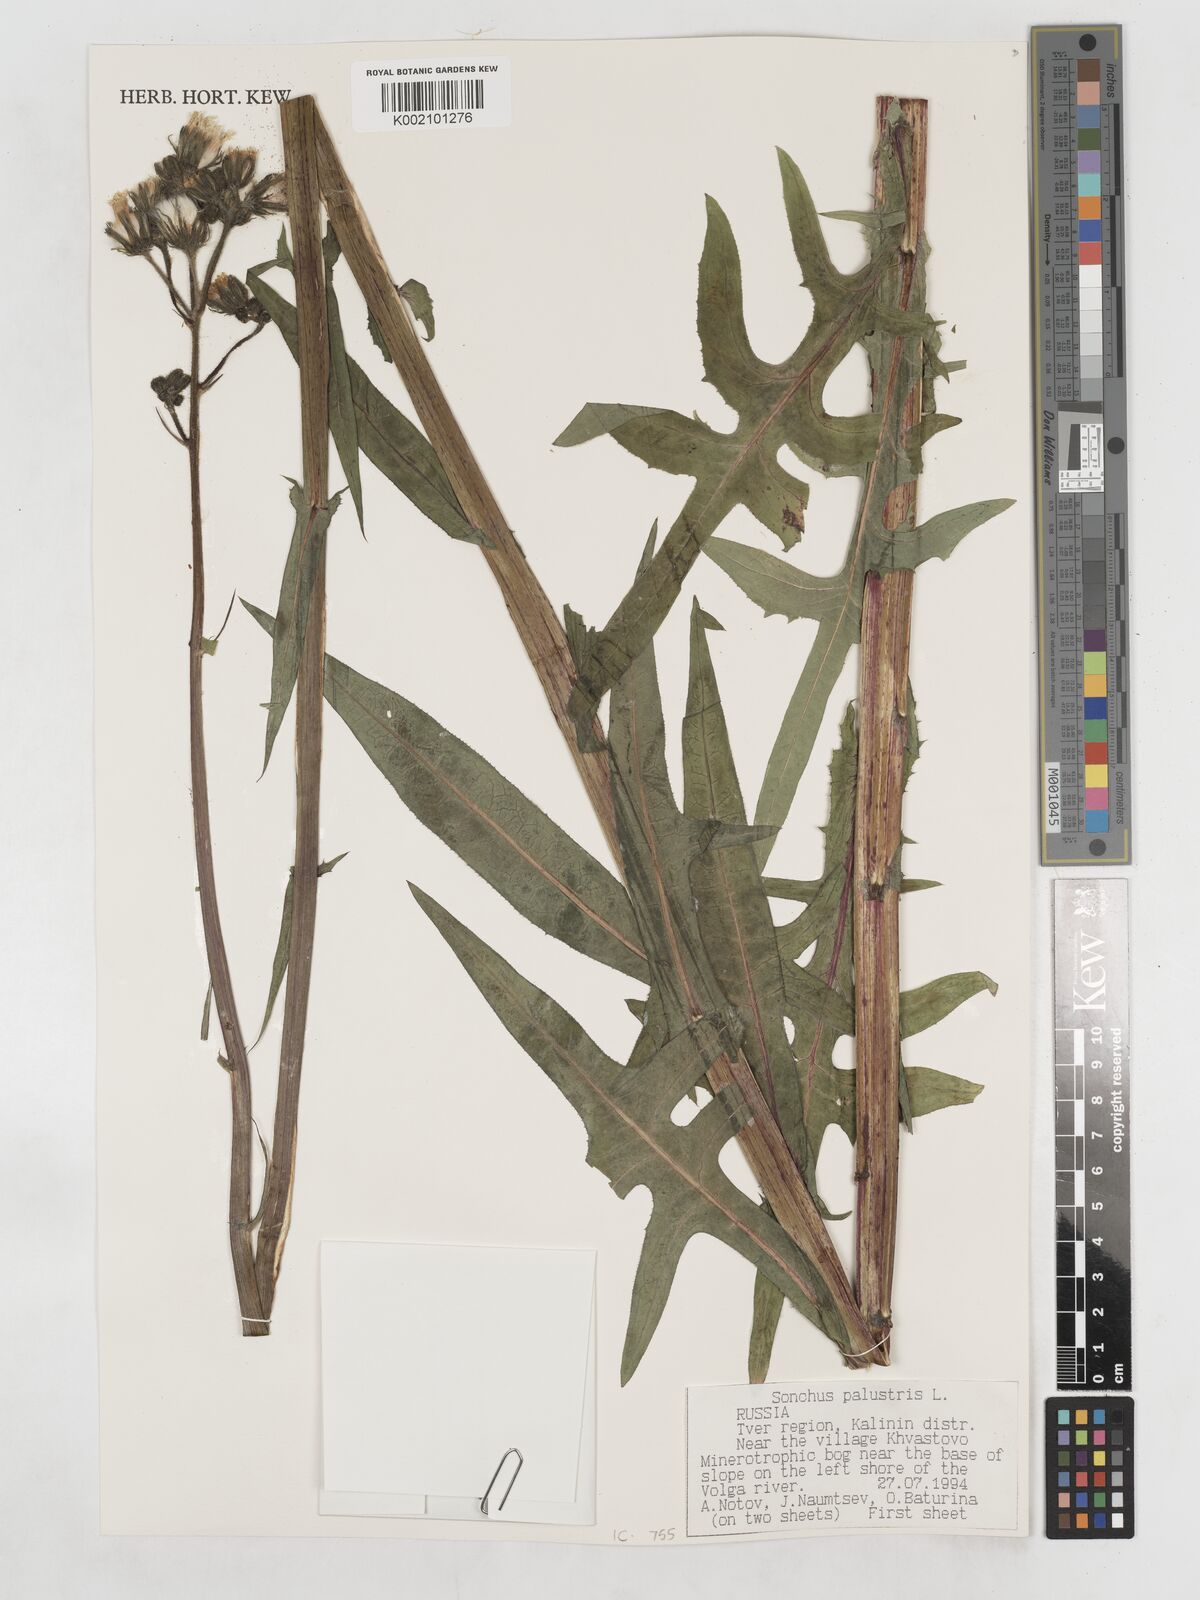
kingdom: Plantae
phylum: Tracheophyta
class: Magnoliopsida
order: Asterales
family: Asteraceae
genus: Sonchus
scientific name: Sonchus palustris
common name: Marsh sow-thistle
